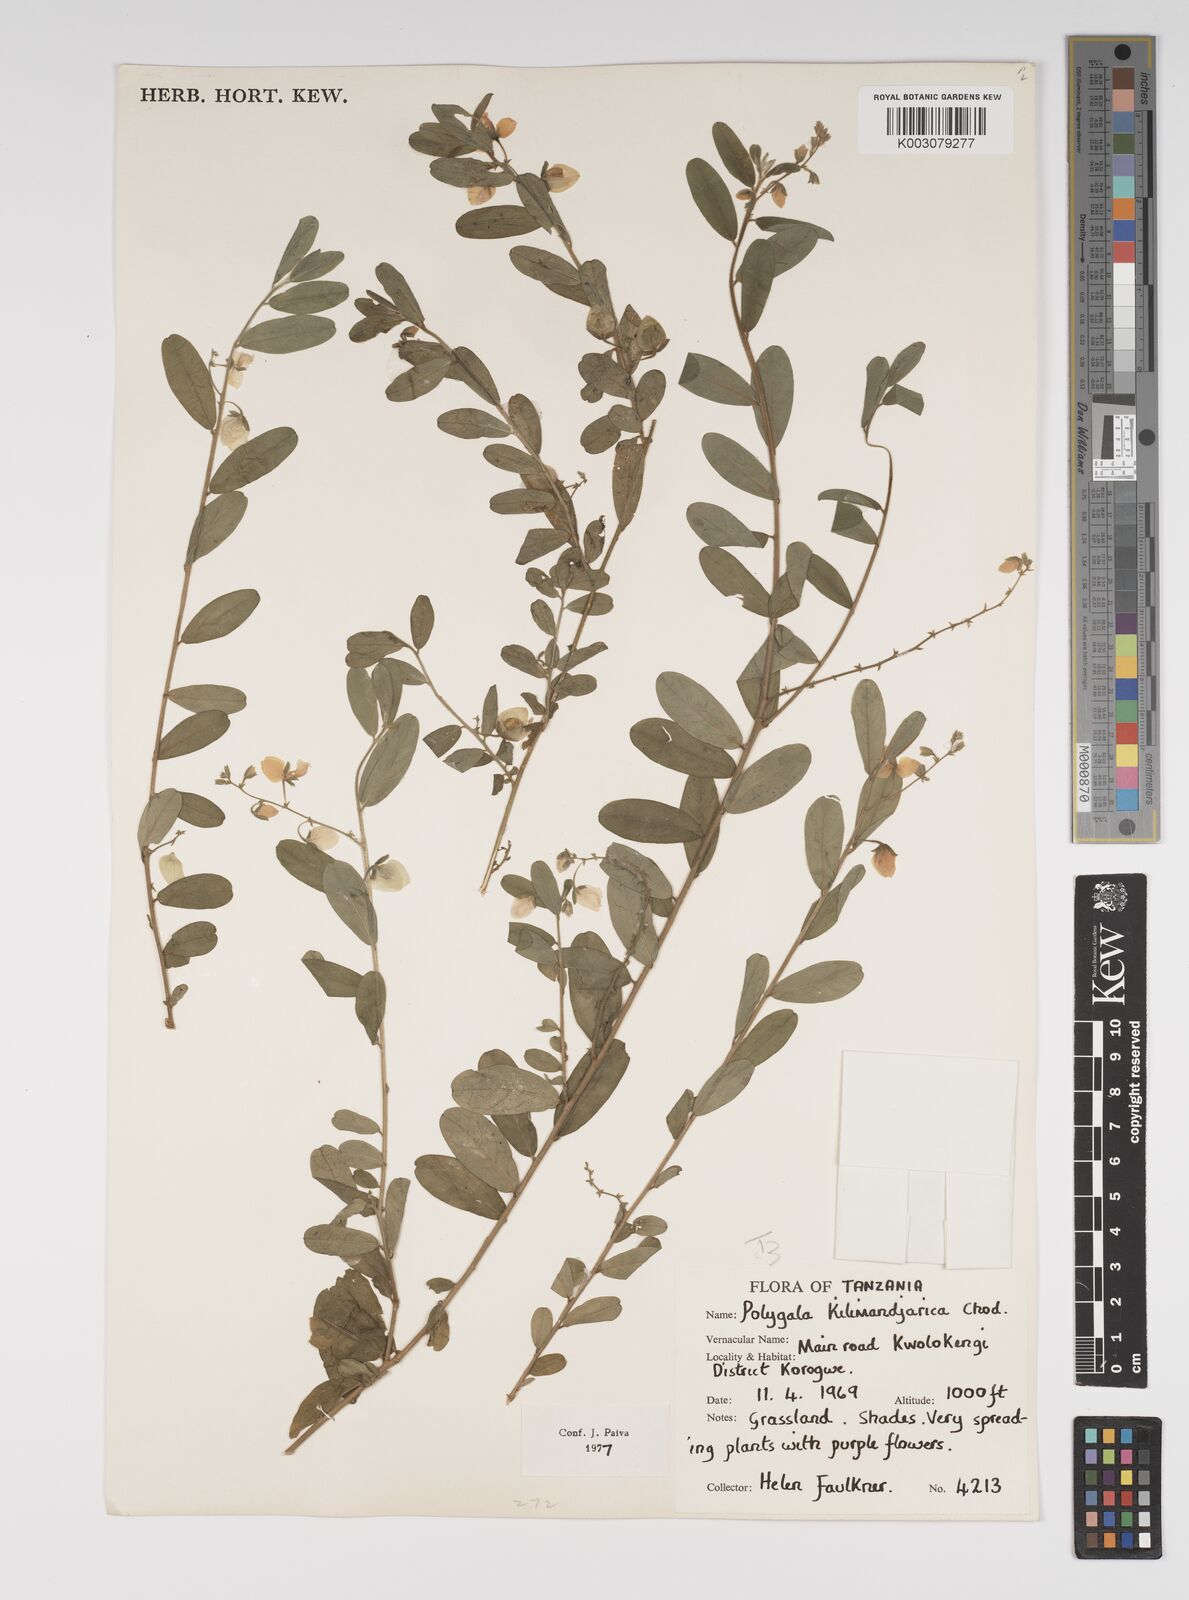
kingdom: Plantae
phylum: Tracheophyta
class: Magnoliopsida
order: Fabales
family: Polygalaceae
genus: Polygala
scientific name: Polygala kilimandjarica
